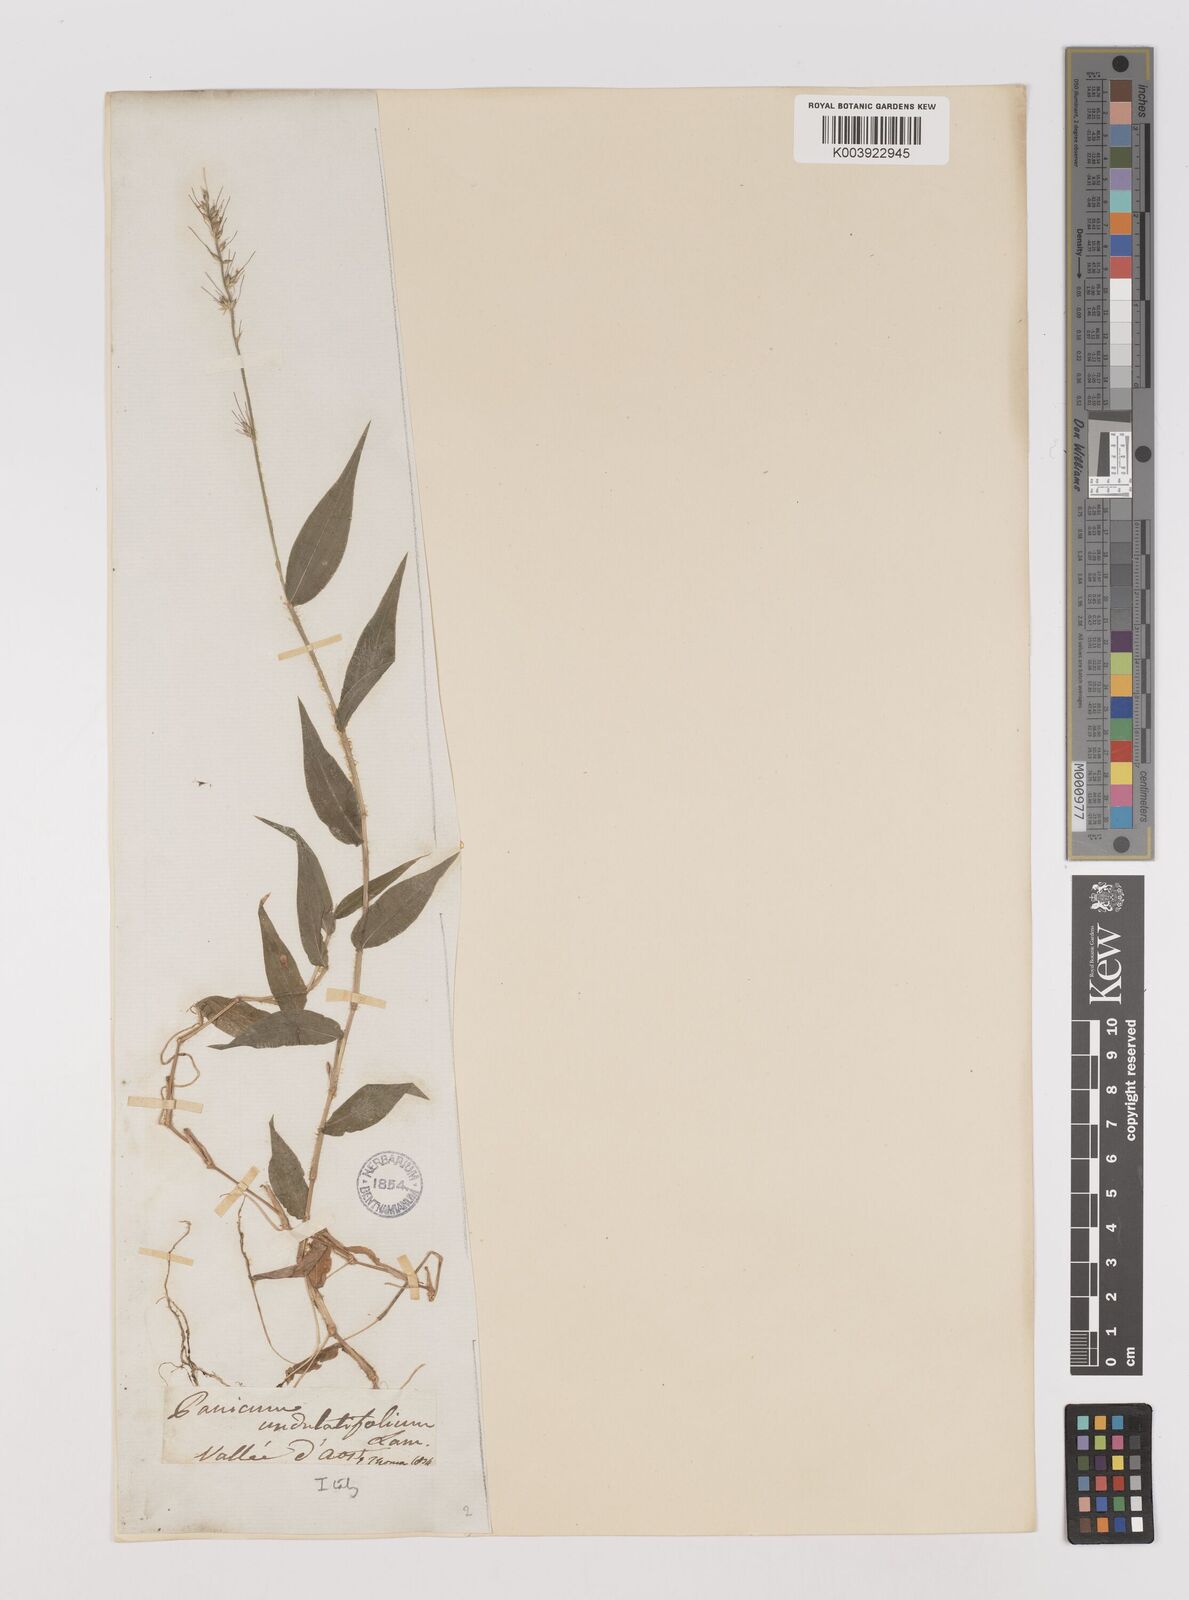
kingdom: Plantae
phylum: Tracheophyta
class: Liliopsida
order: Poales
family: Poaceae
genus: Oplismenus
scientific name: Oplismenus undulatifolius
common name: Wavyleaf basketgrass
